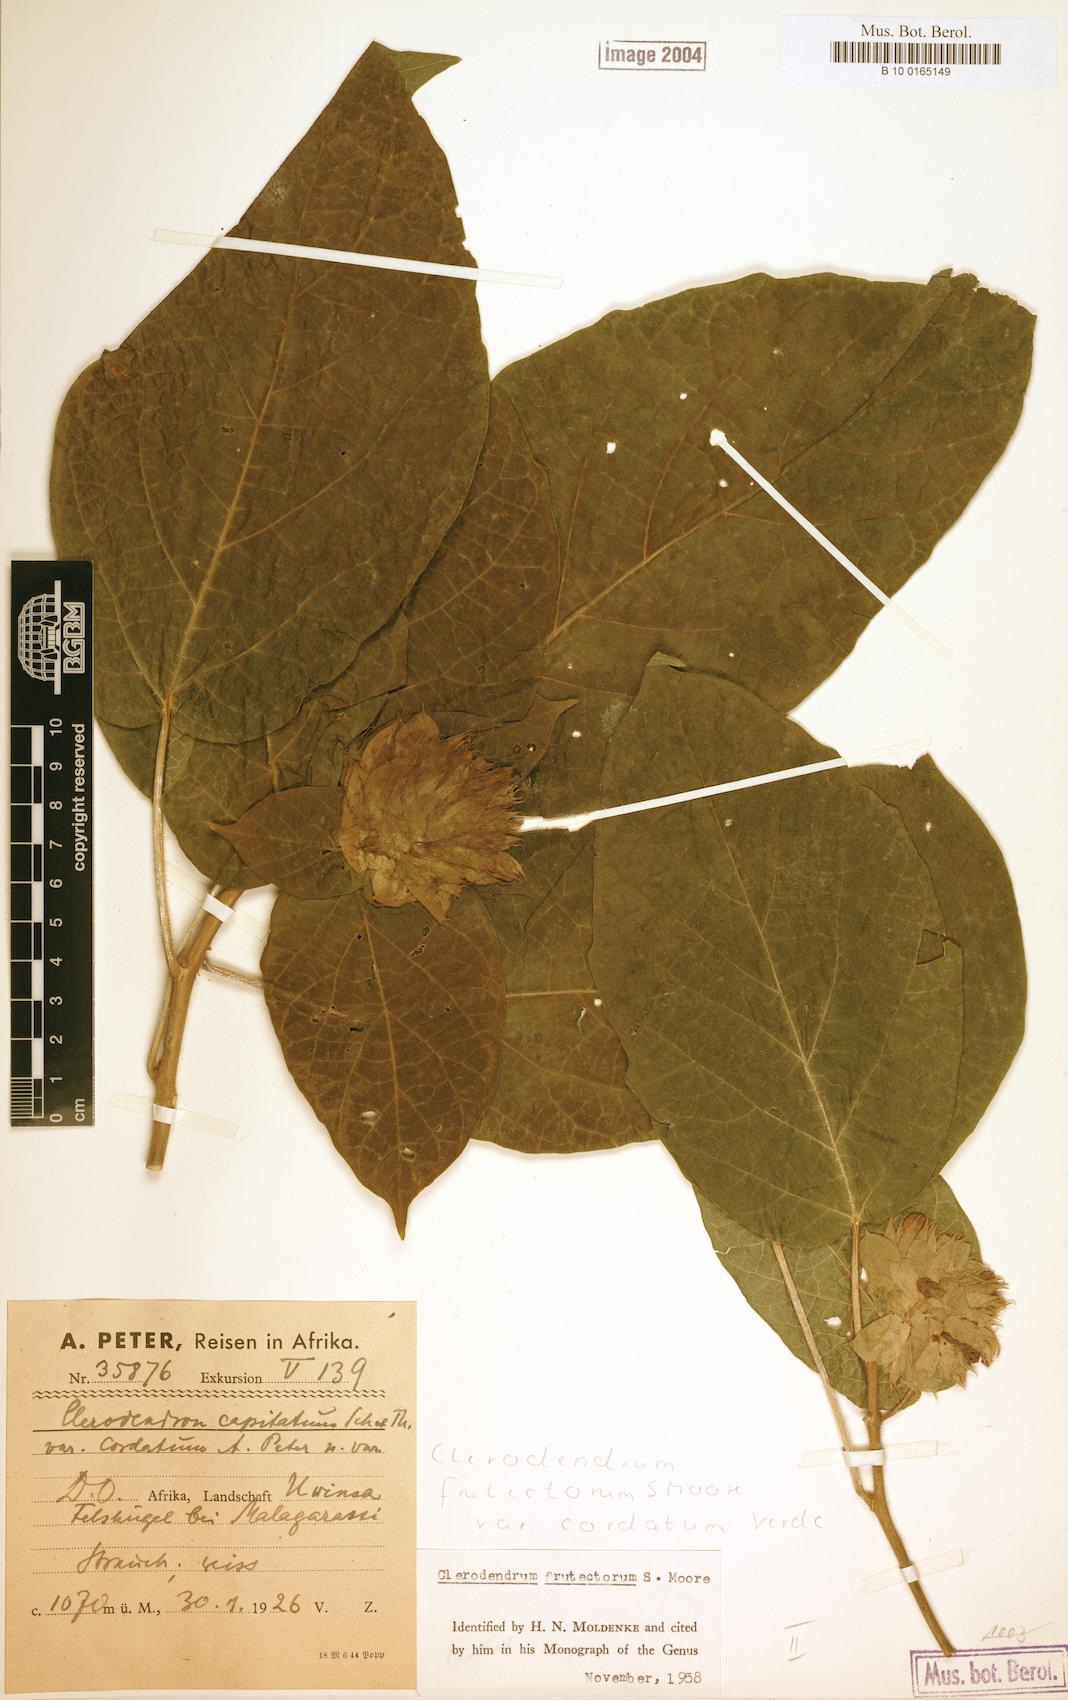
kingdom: Plantae
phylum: Tracheophyta
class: Magnoliopsida
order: Lamiales
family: Lamiaceae
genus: Clerodendrum
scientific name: Clerodendrum frutectorum
